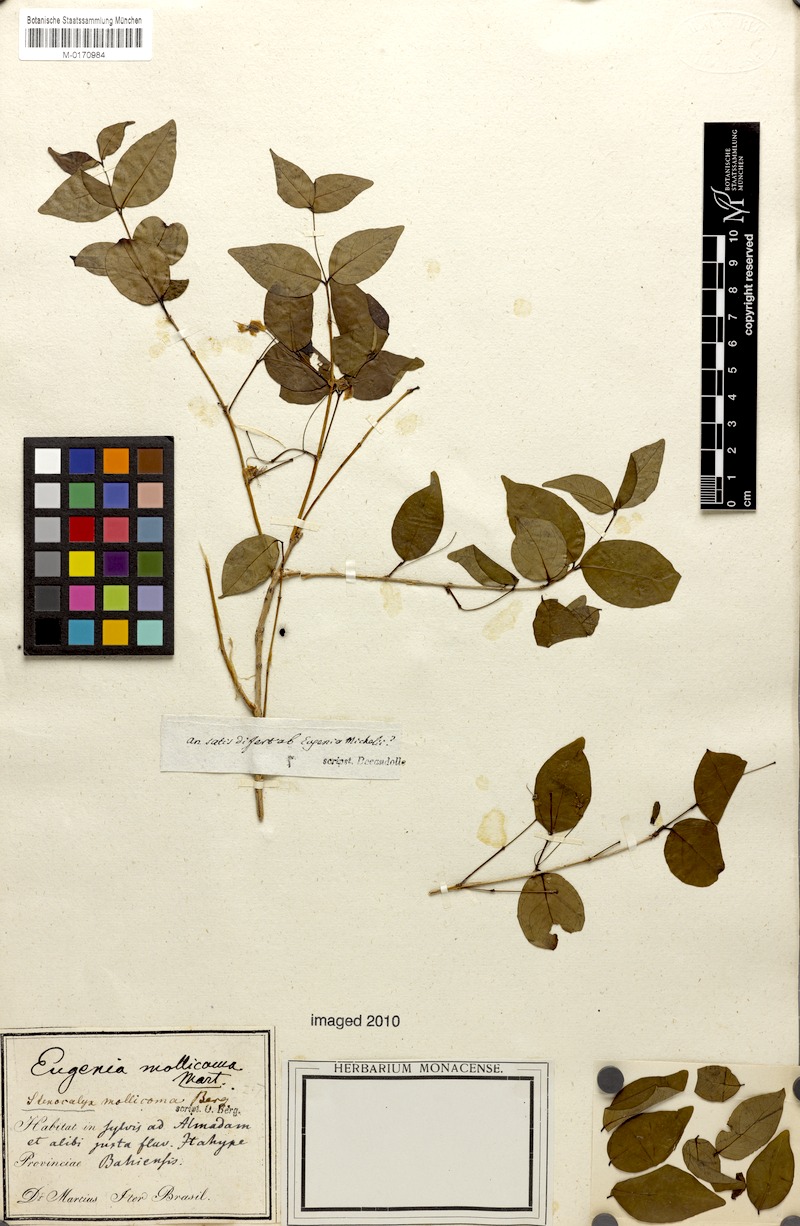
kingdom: Plantae
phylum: Tracheophyta
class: Magnoliopsida
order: Myrtales
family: Myrtaceae
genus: Eugenia
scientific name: Eugenia mollicoma
